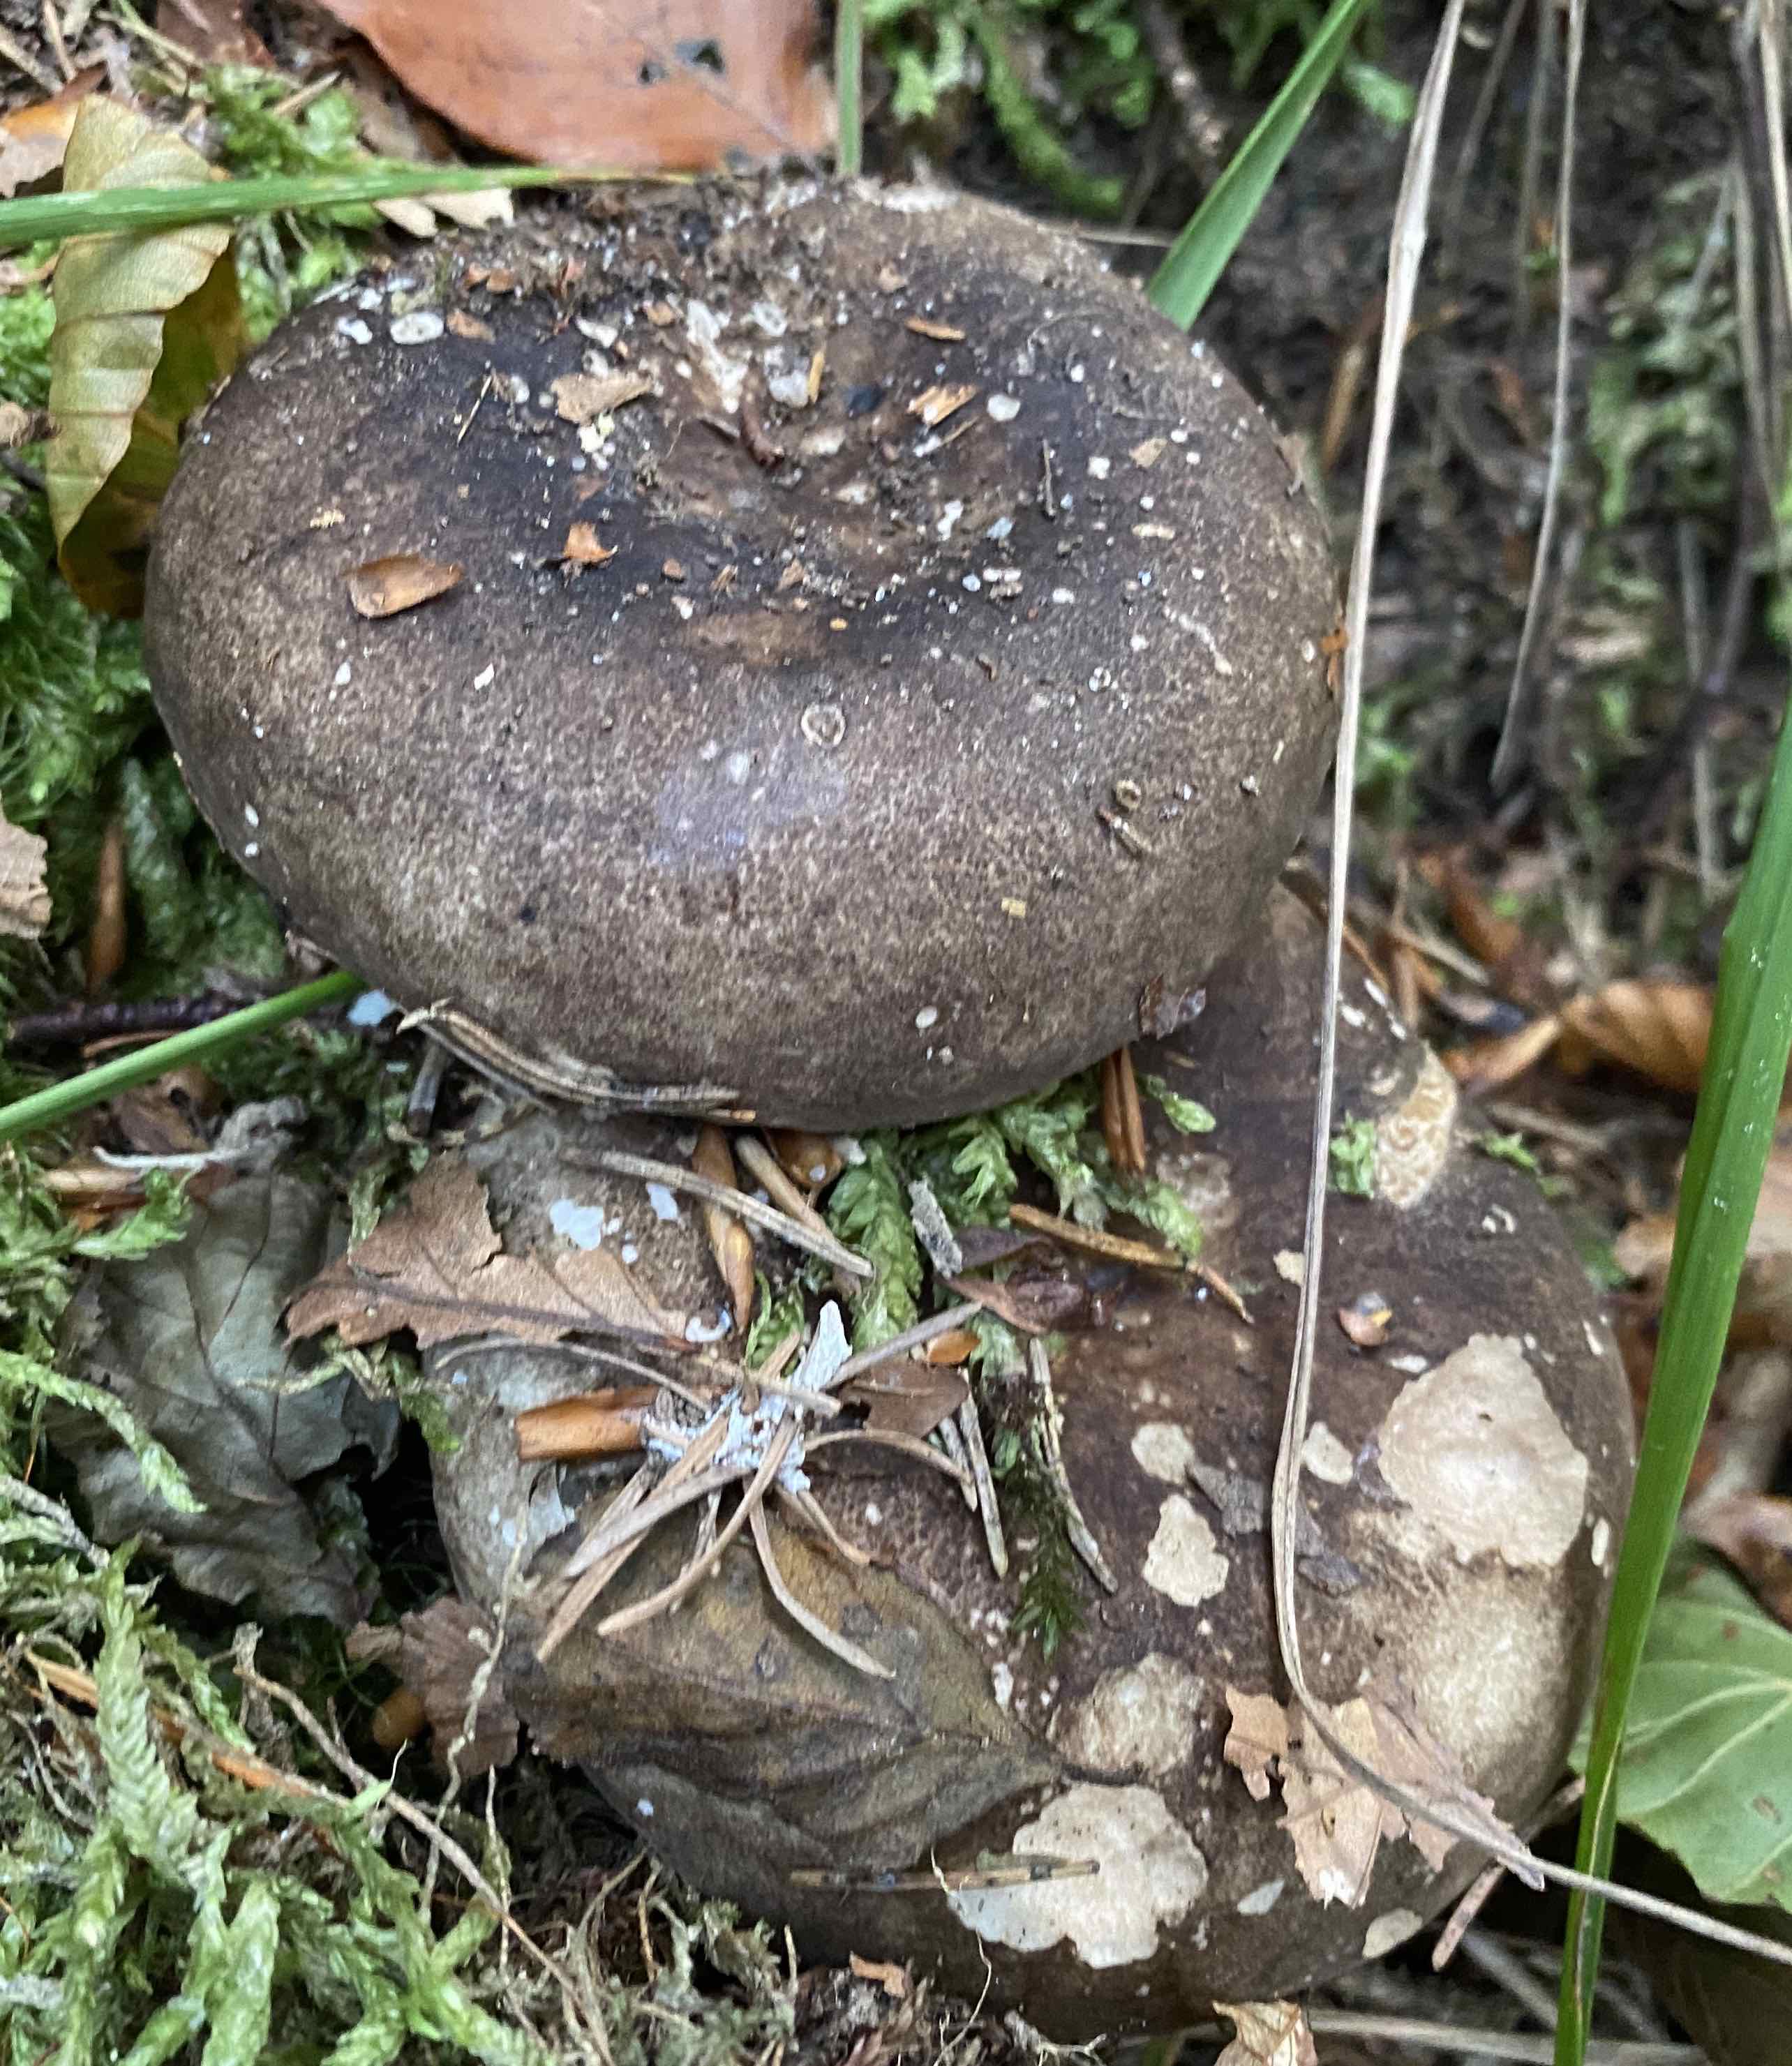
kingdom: Fungi
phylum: Basidiomycota
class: Agaricomycetes
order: Russulales
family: Russulaceae
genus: Russula
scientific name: Russula adusta
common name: sværtende skørhat
